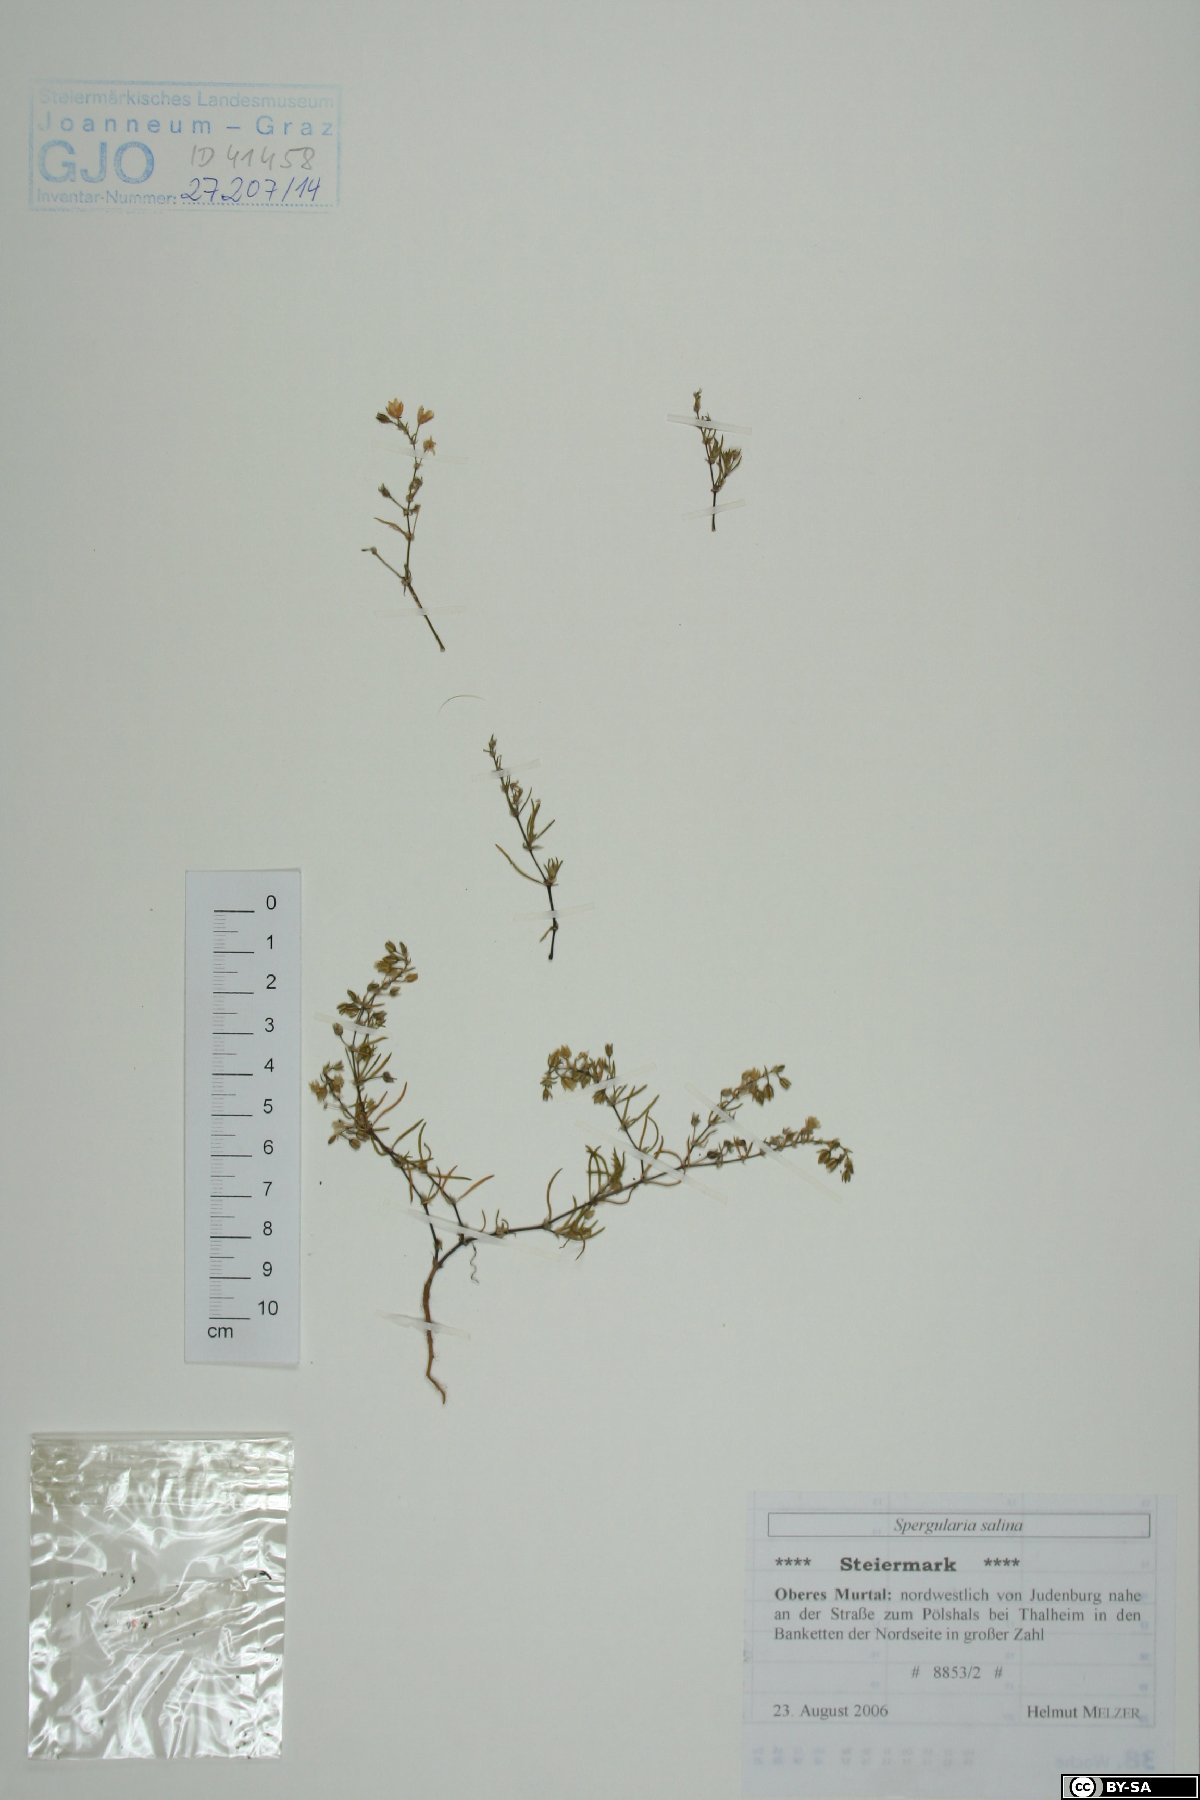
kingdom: Plantae
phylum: Tracheophyta
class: Magnoliopsida
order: Caryophyllales
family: Caryophyllaceae
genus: Spergularia
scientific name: Spergularia marina
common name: Lesser sea-spurrey
